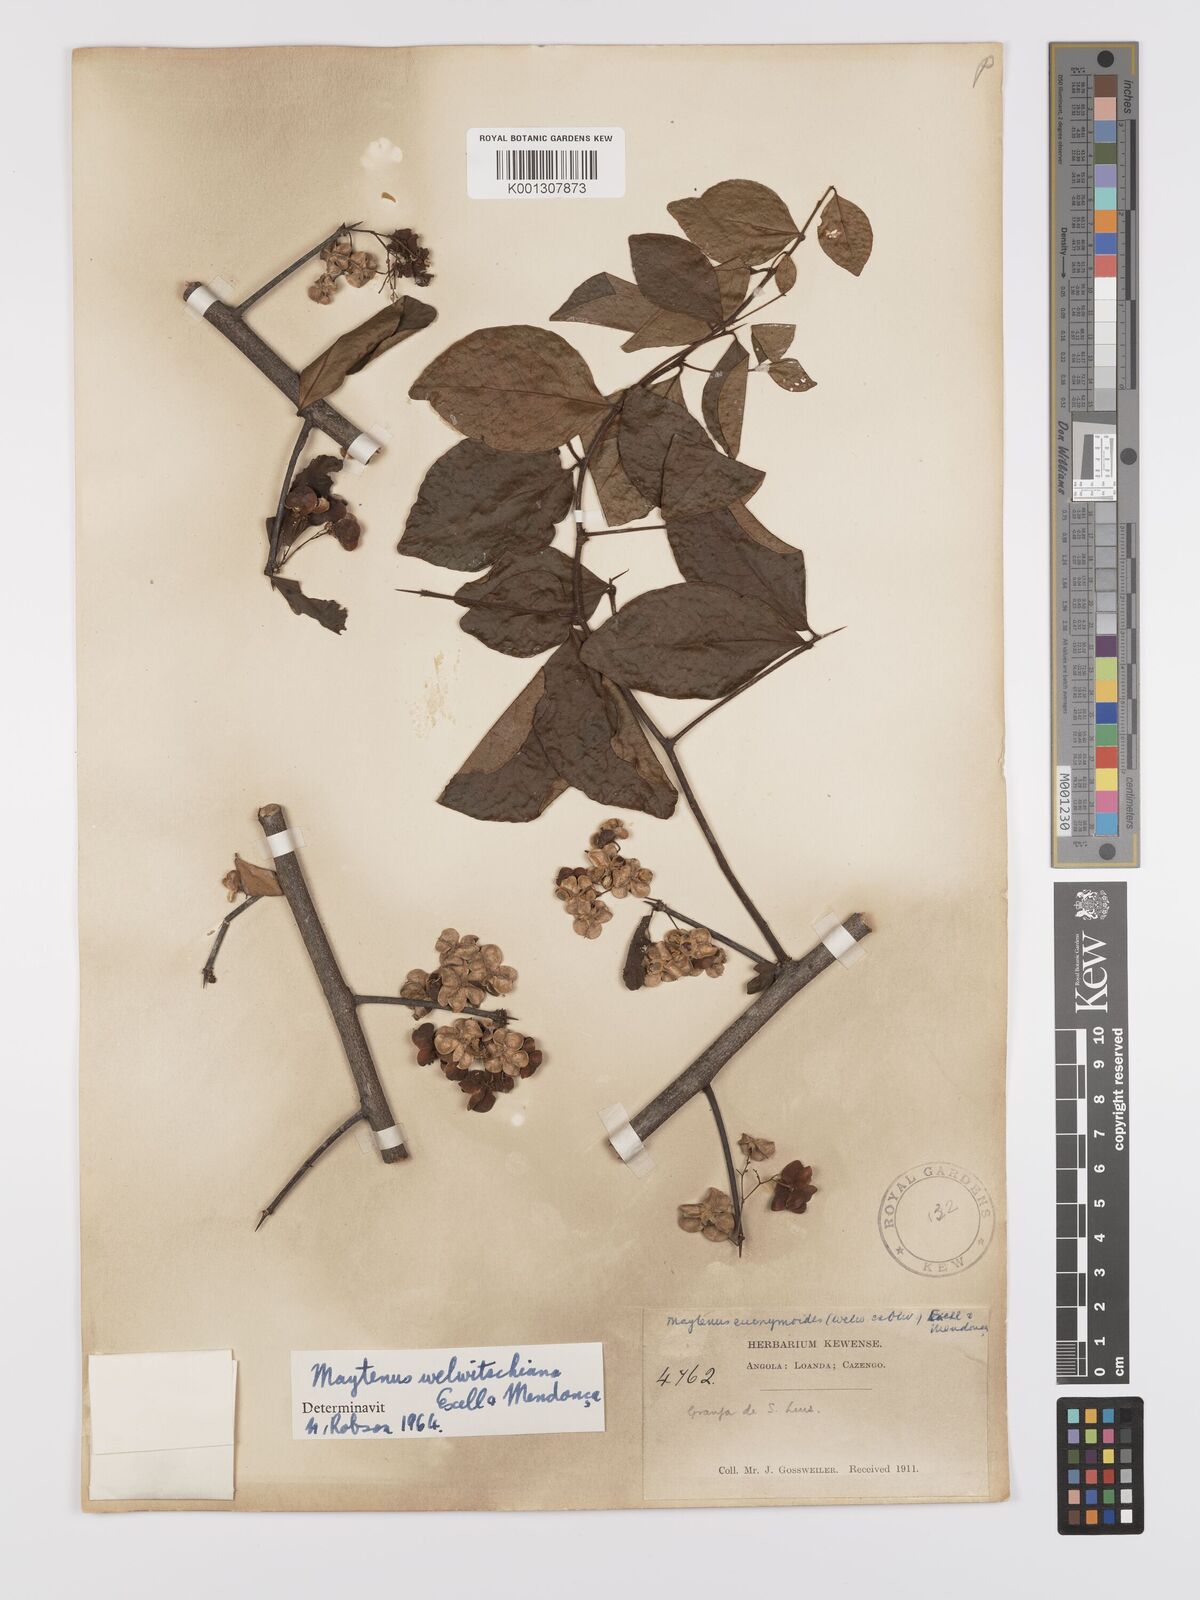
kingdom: Plantae
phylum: Tracheophyta
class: Magnoliopsida
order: Celastrales
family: Celastraceae
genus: Gymnosporia
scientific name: Gymnosporia putterlickioides
